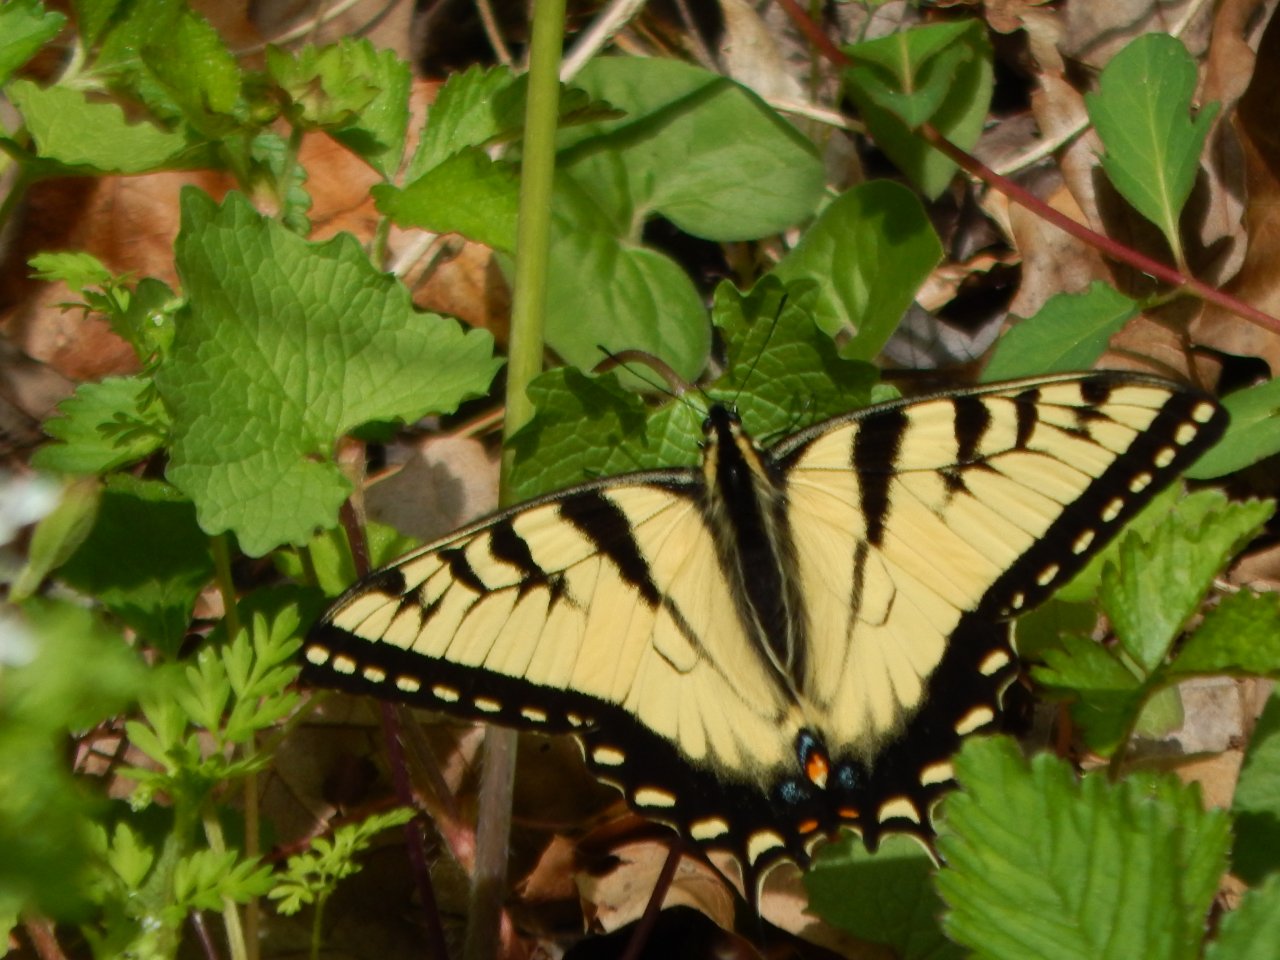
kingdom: Animalia
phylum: Arthropoda
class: Insecta
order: Lepidoptera
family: Papilionidae
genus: Pterourus
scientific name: Pterourus glaucus
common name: Eastern Tiger Swallowtail
